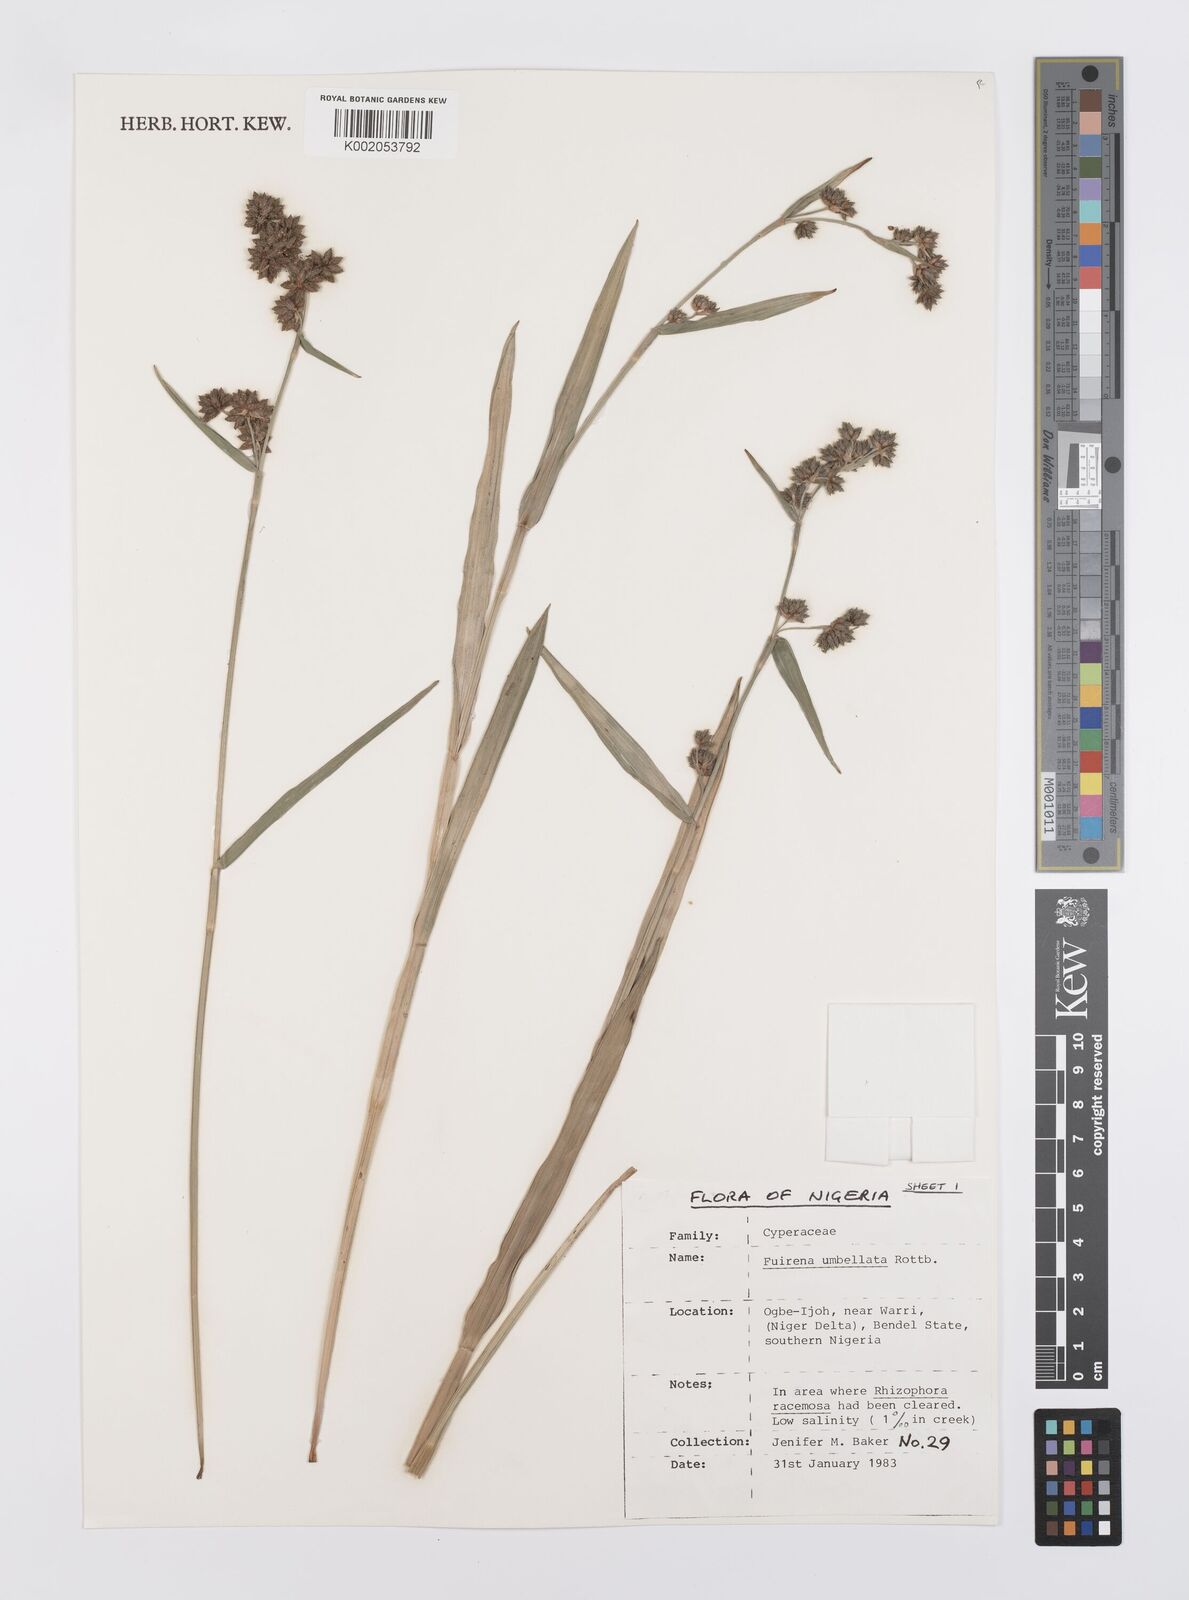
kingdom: Plantae
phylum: Tracheophyta
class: Liliopsida
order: Poales
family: Cyperaceae
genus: Fuirena
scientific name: Fuirena umbellata
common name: Yefen
